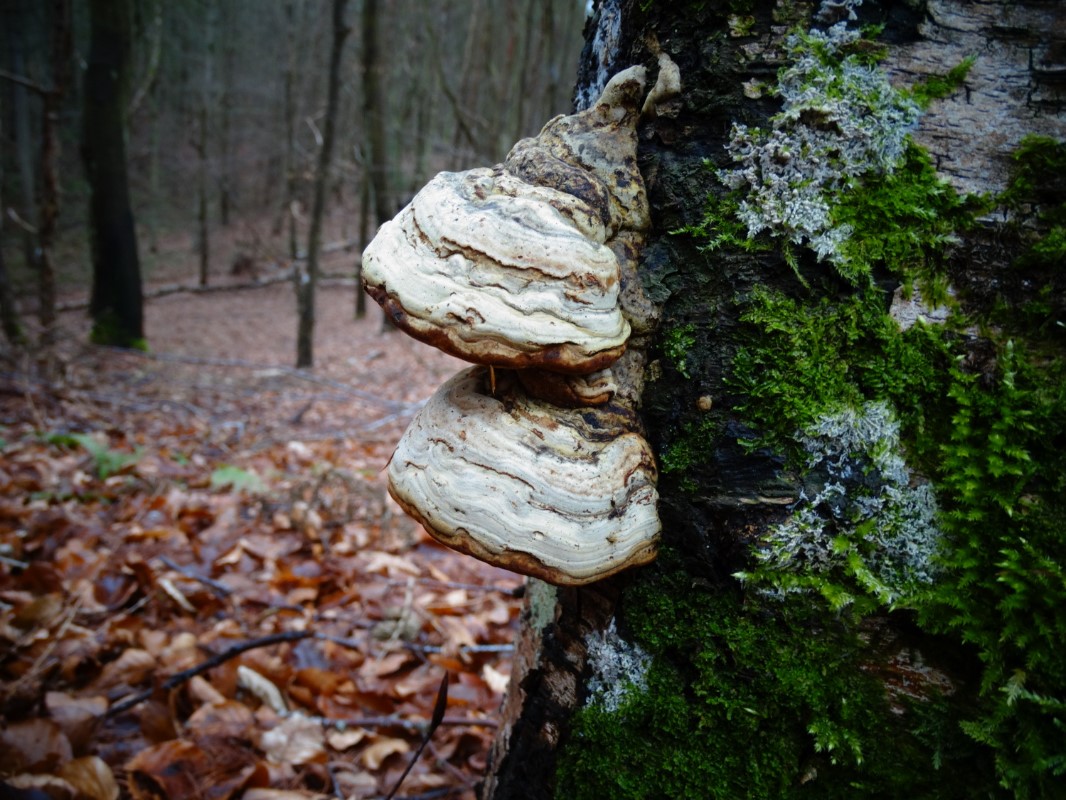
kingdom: Fungi
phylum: Basidiomycota
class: Agaricomycetes
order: Polyporales
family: Polyporaceae
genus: Fomes
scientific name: Fomes fomentarius
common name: tøndersvamp
